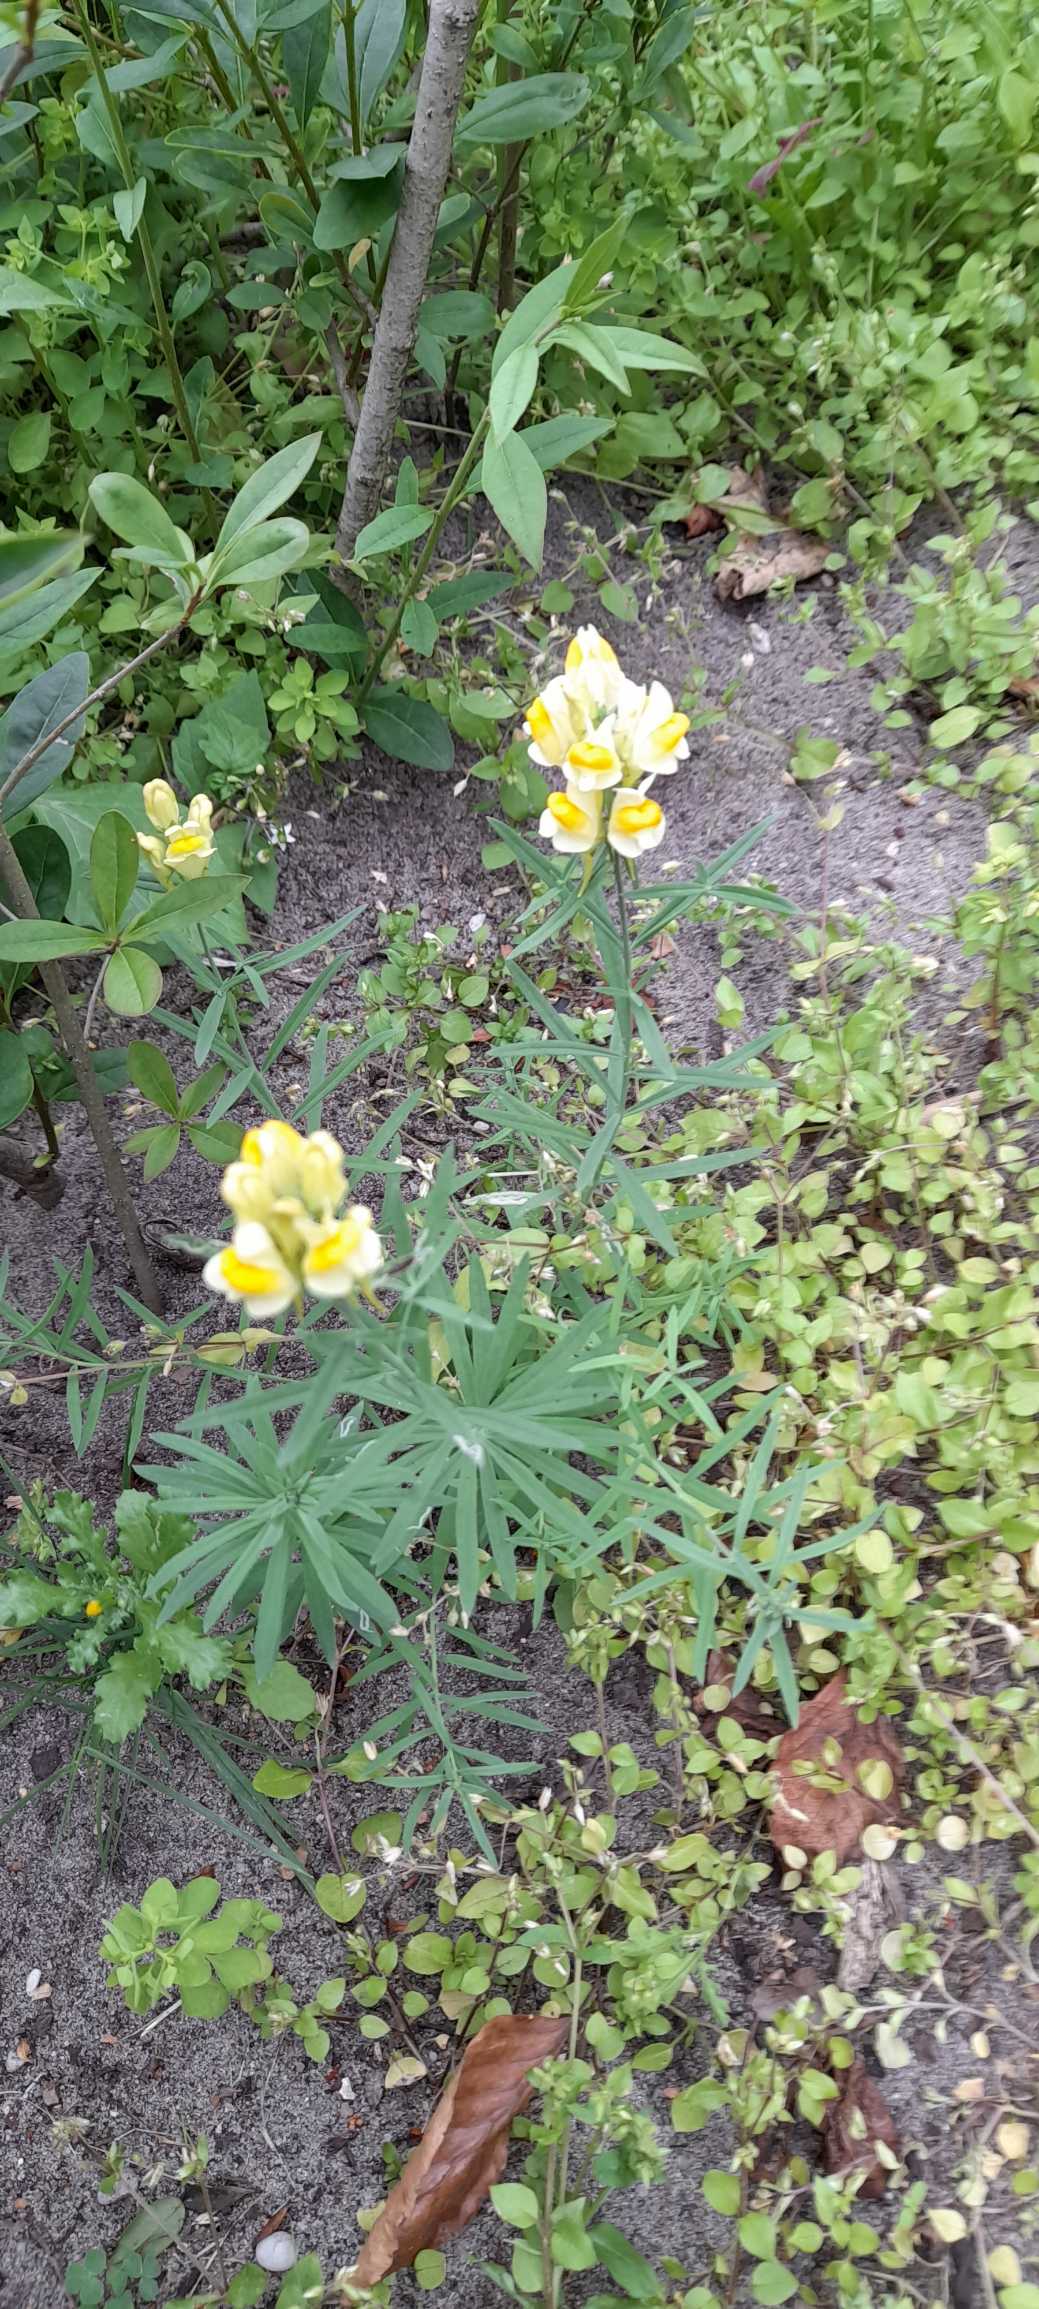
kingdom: Plantae
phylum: Tracheophyta
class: Magnoliopsida
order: Lamiales
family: Plantaginaceae
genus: Linaria
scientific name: Linaria vulgaris
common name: Almindelig torskemund
